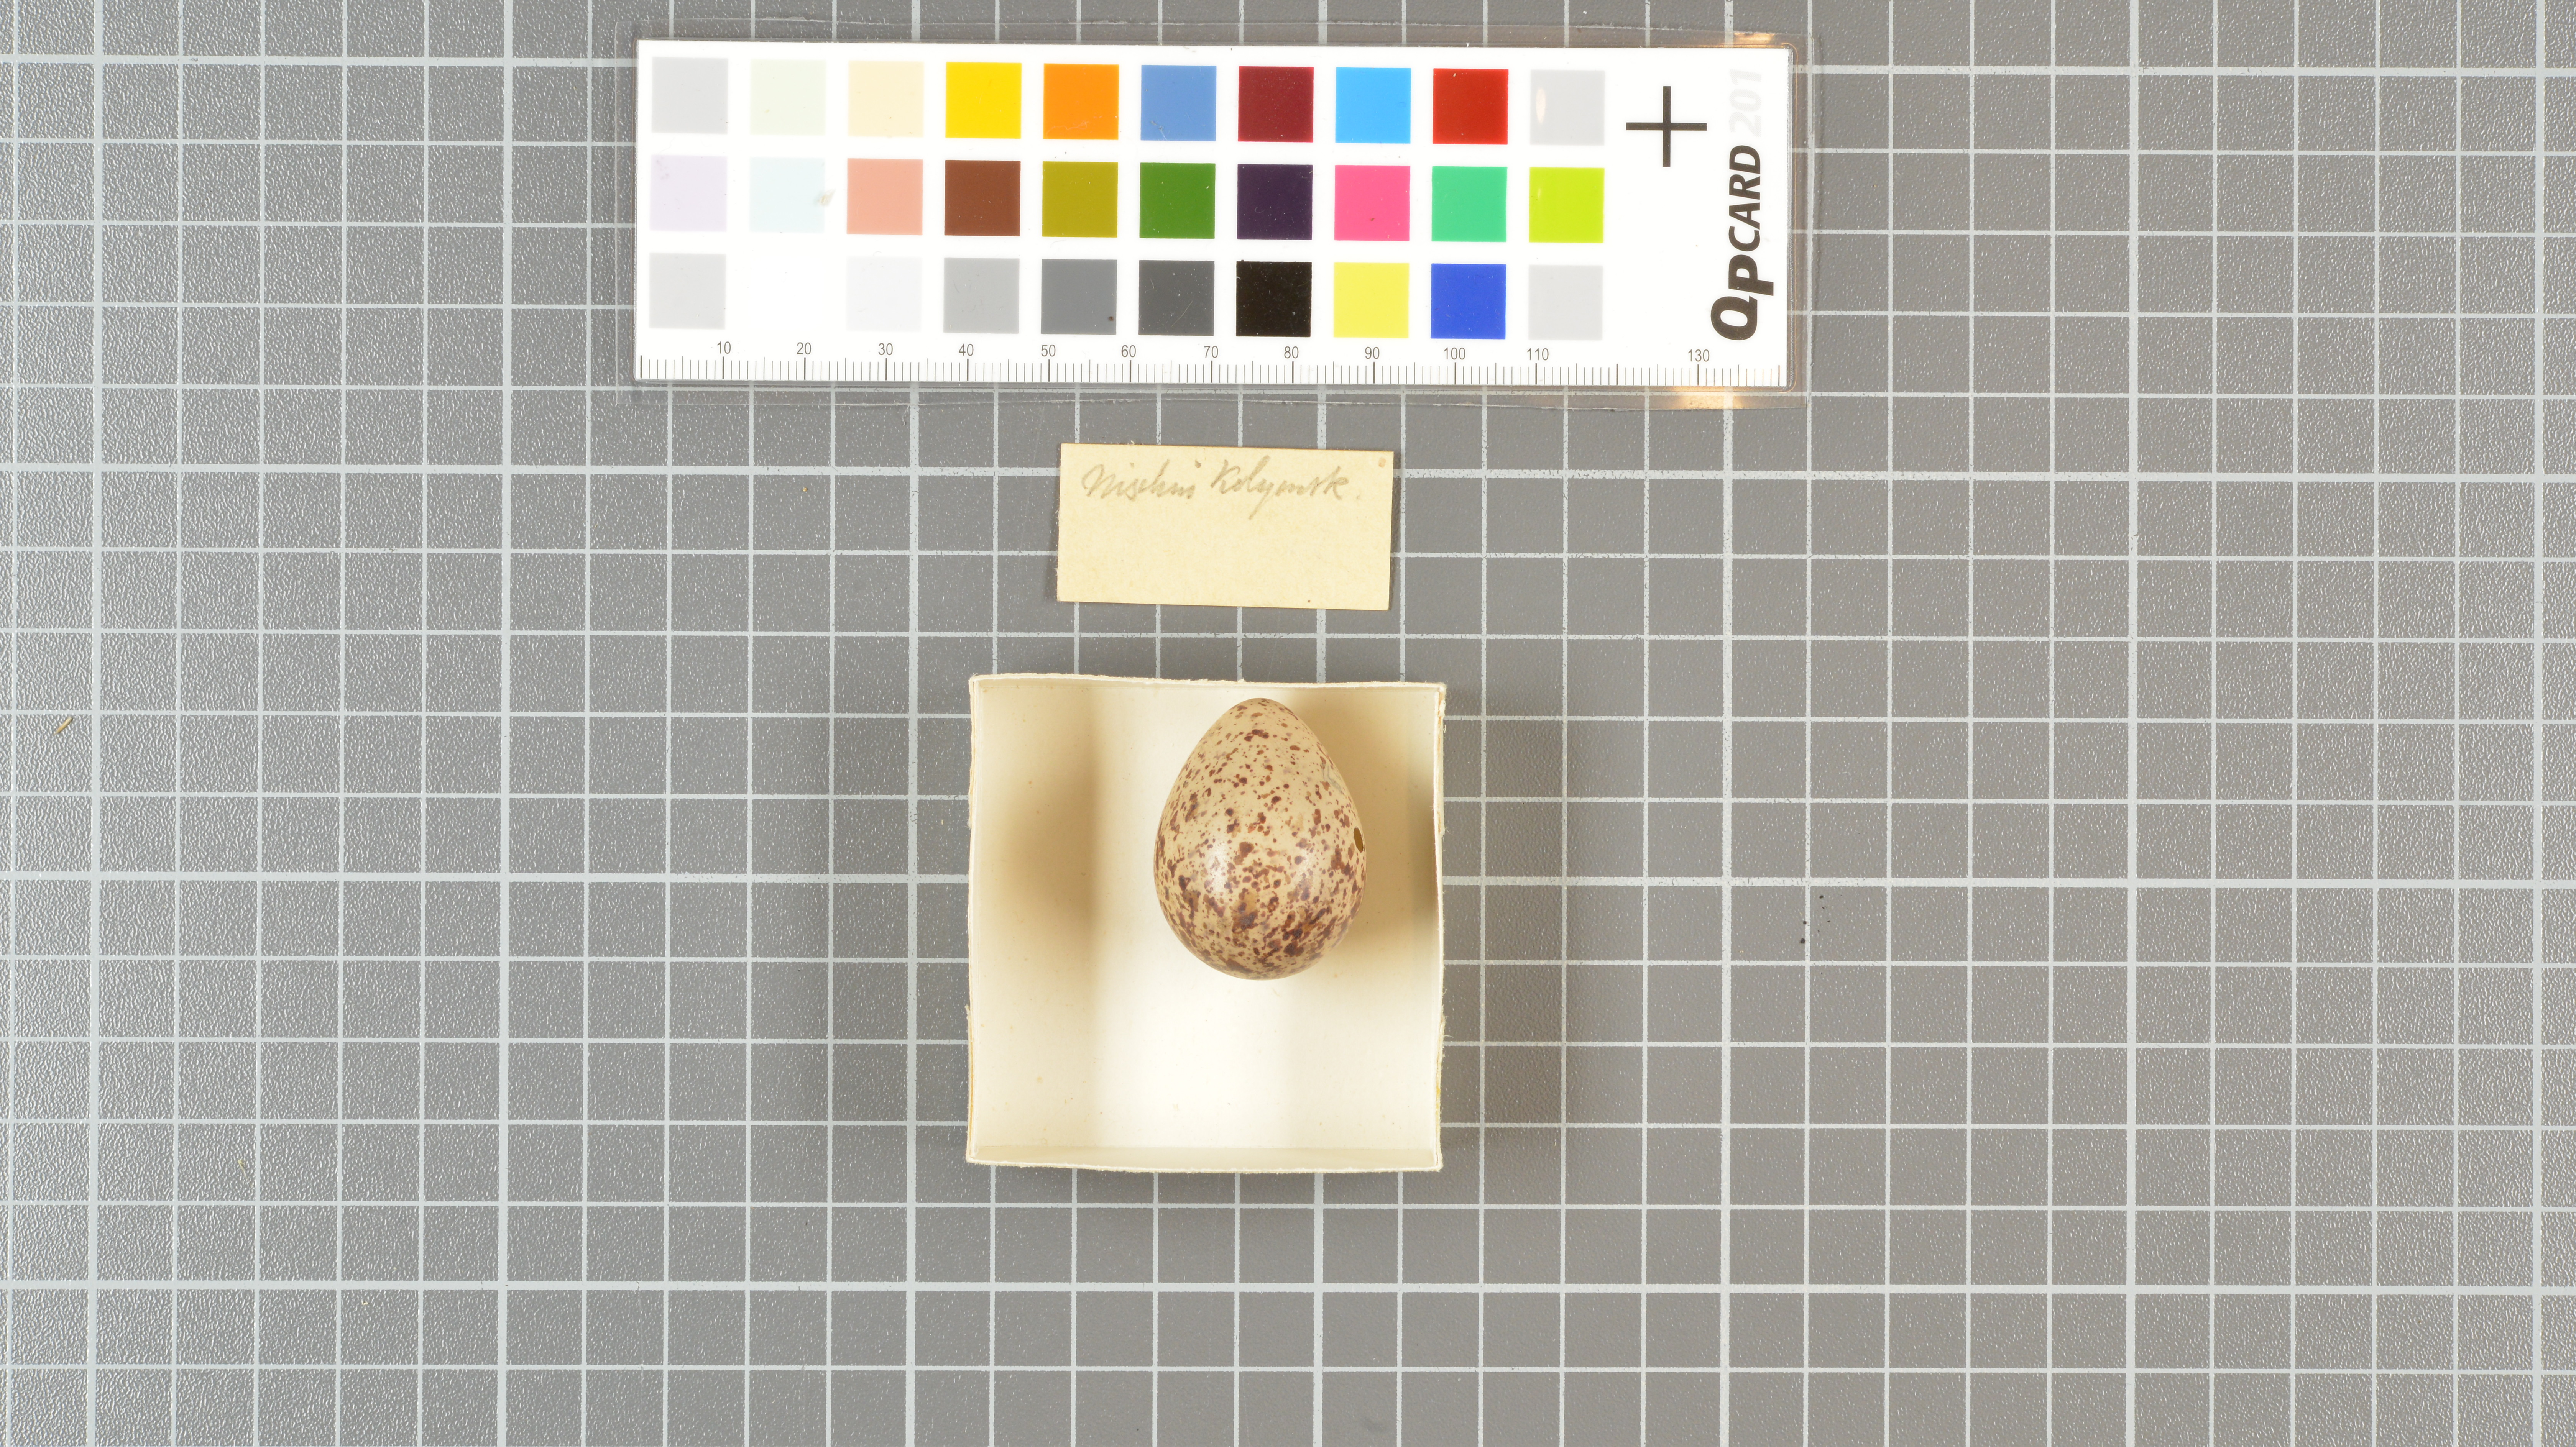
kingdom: Animalia
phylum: Chordata
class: Aves
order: Charadriiformes
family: Scolopacidae
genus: Tringa
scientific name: Tringa ochropus
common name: Green sandpiper
